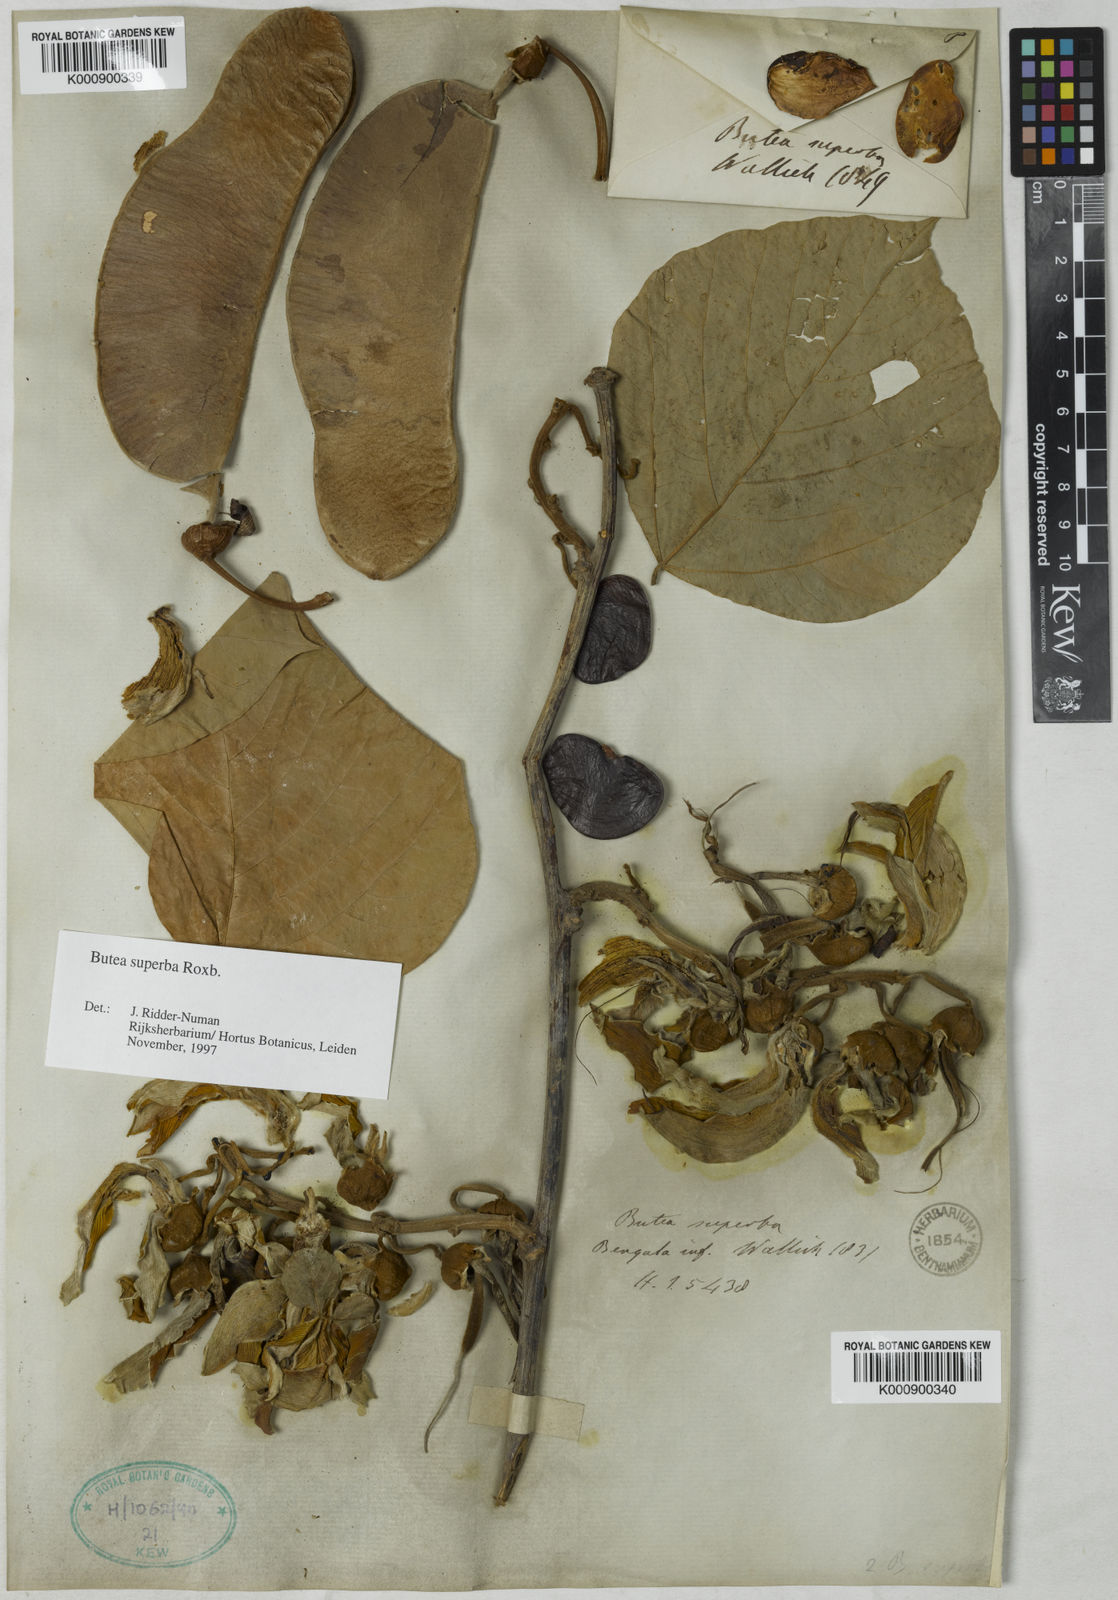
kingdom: Plantae
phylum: Tracheophyta
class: Magnoliopsida
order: Fabales
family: Fabaceae
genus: Butea
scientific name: Butea
